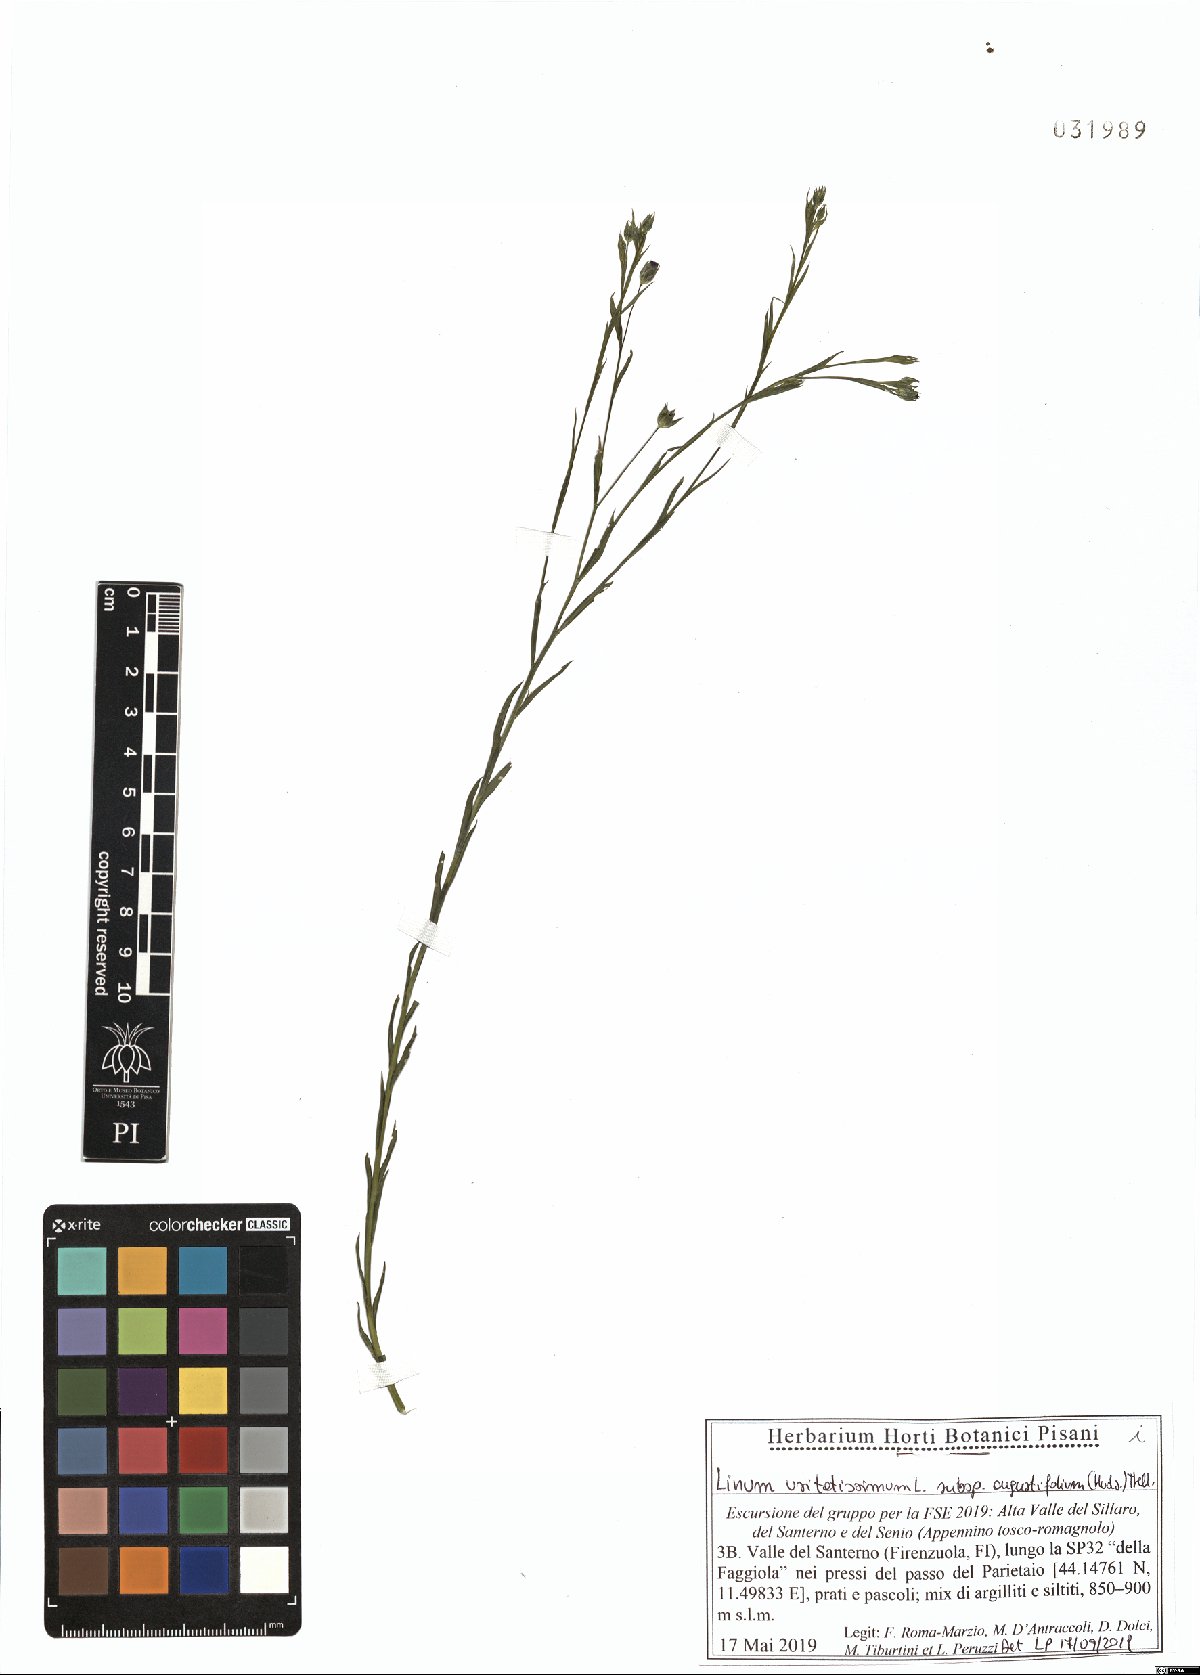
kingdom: Plantae
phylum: Tracheophyta
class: Magnoliopsida
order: Malpighiales
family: Linaceae
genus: Linum
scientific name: Linum bienne
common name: Pale flax
